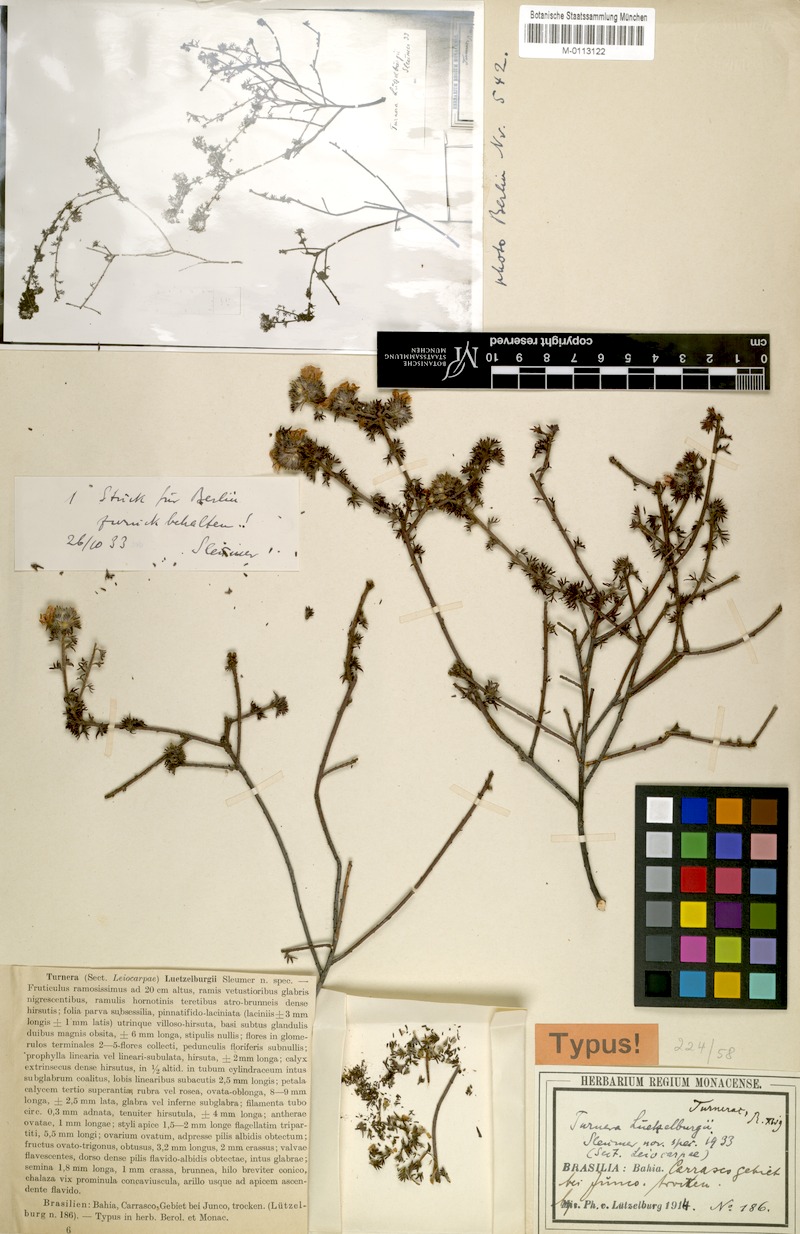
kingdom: Plantae
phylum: Tracheophyta
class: Magnoliopsida
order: Malpighiales
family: Turneraceae
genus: Turnera
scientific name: Turnera luetzelburgii
